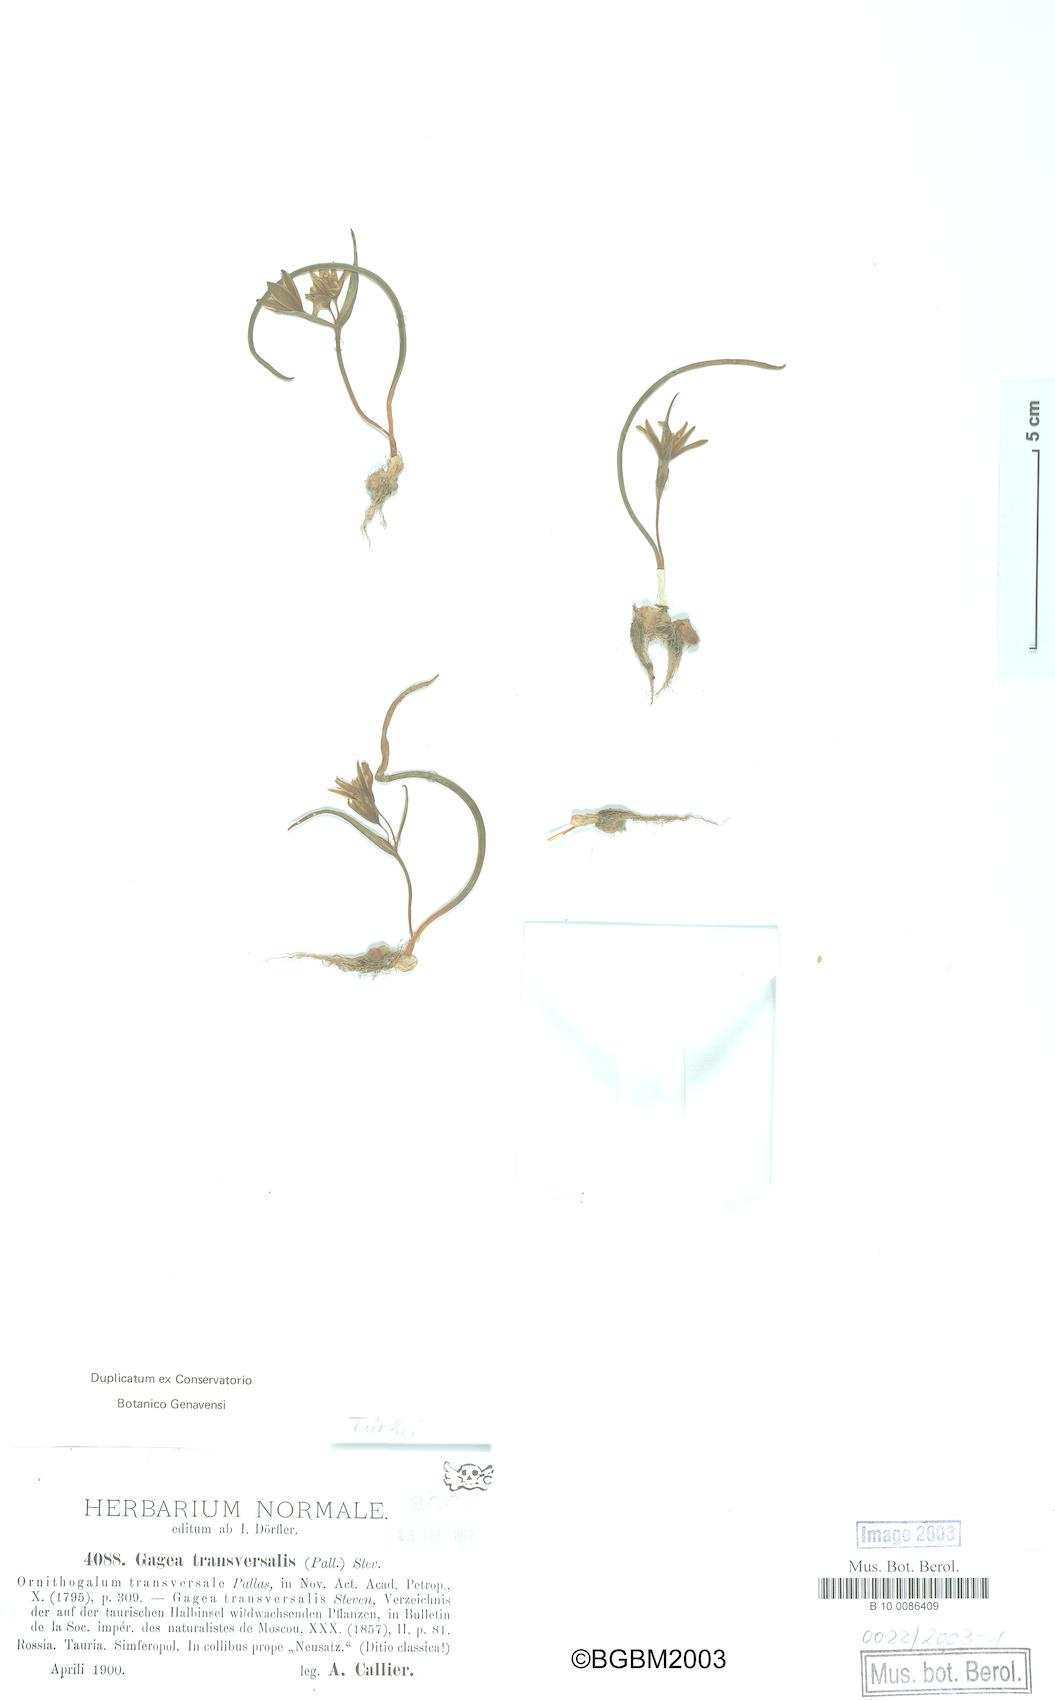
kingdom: Plantae
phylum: Tracheophyta
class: Liliopsida
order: Liliales
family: Liliaceae
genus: Gagea
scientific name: Gagea transversalis
